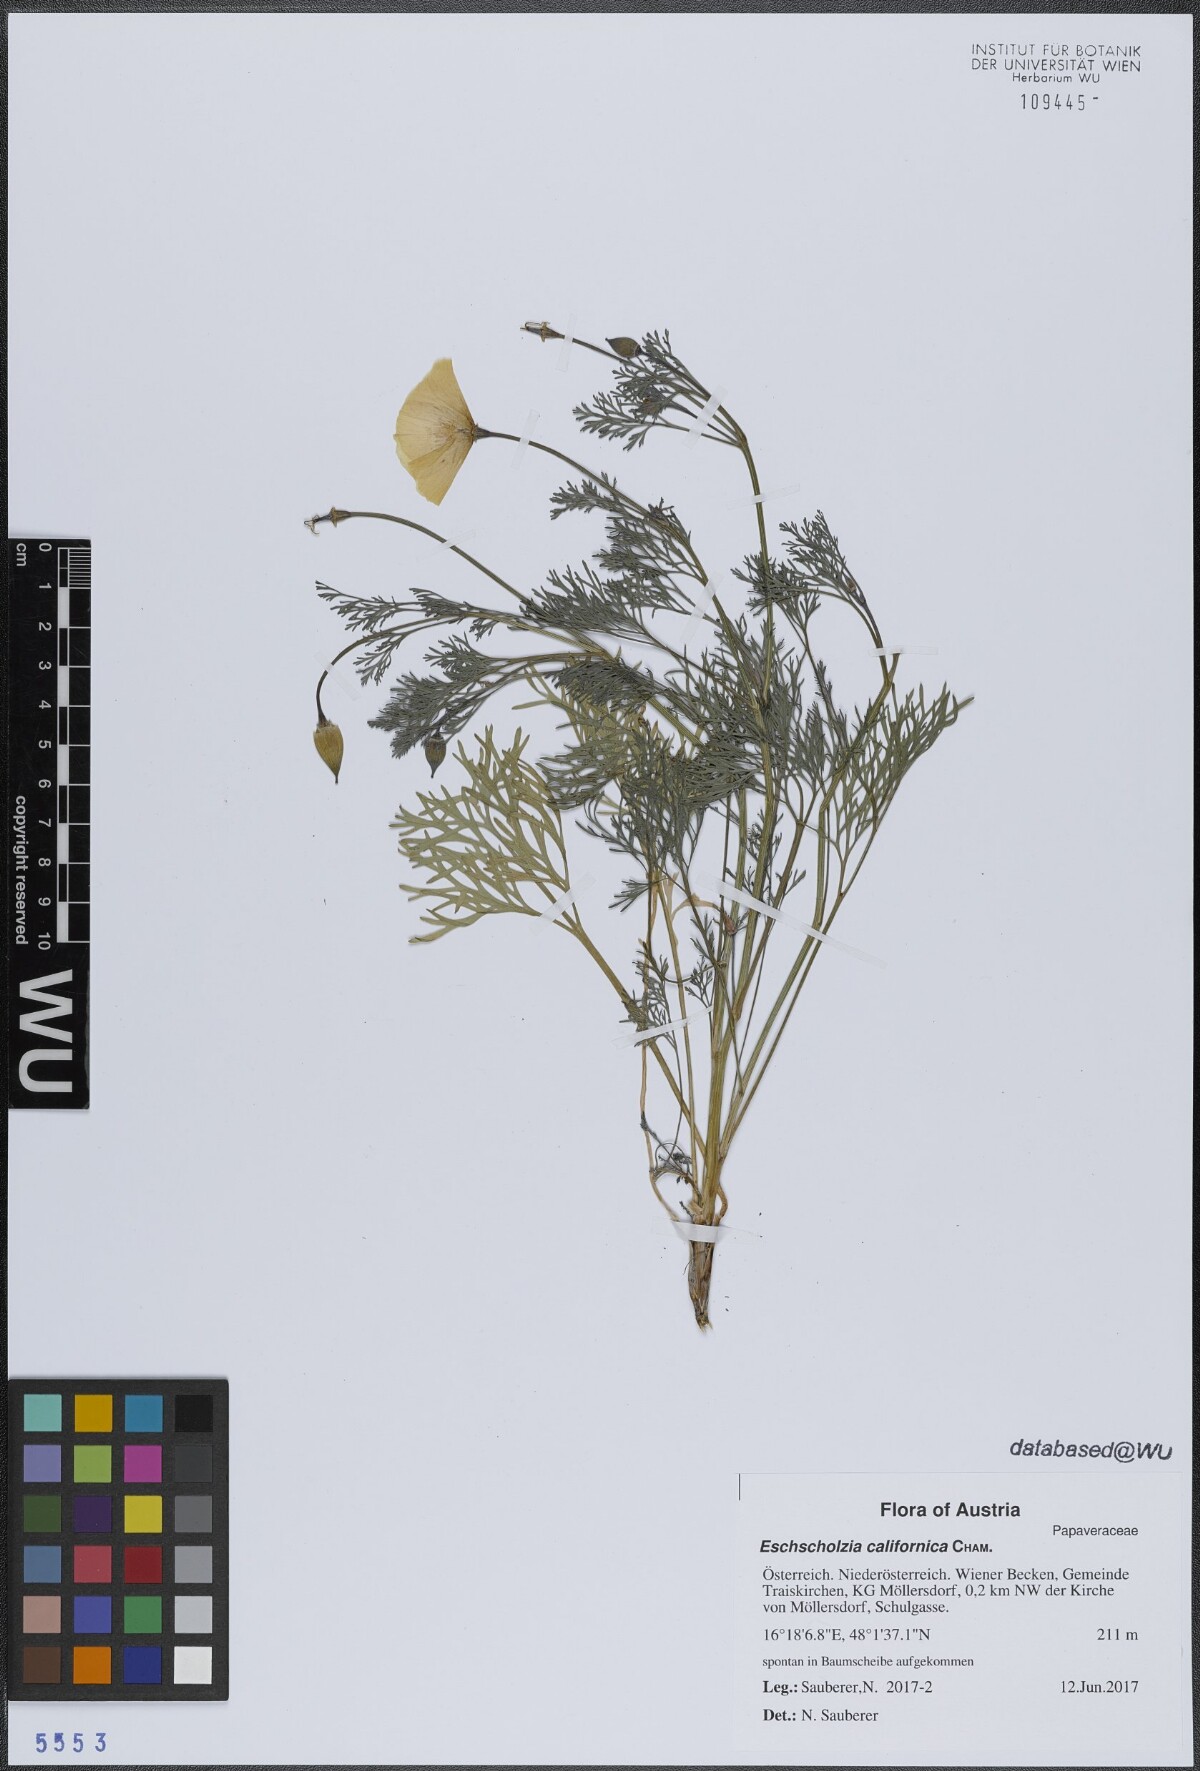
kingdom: Plantae
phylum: Tracheophyta
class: Magnoliopsida
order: Ranunculales
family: Papaveraceae
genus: Eschscholzia
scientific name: Eschscholzia californica
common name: California poppy
